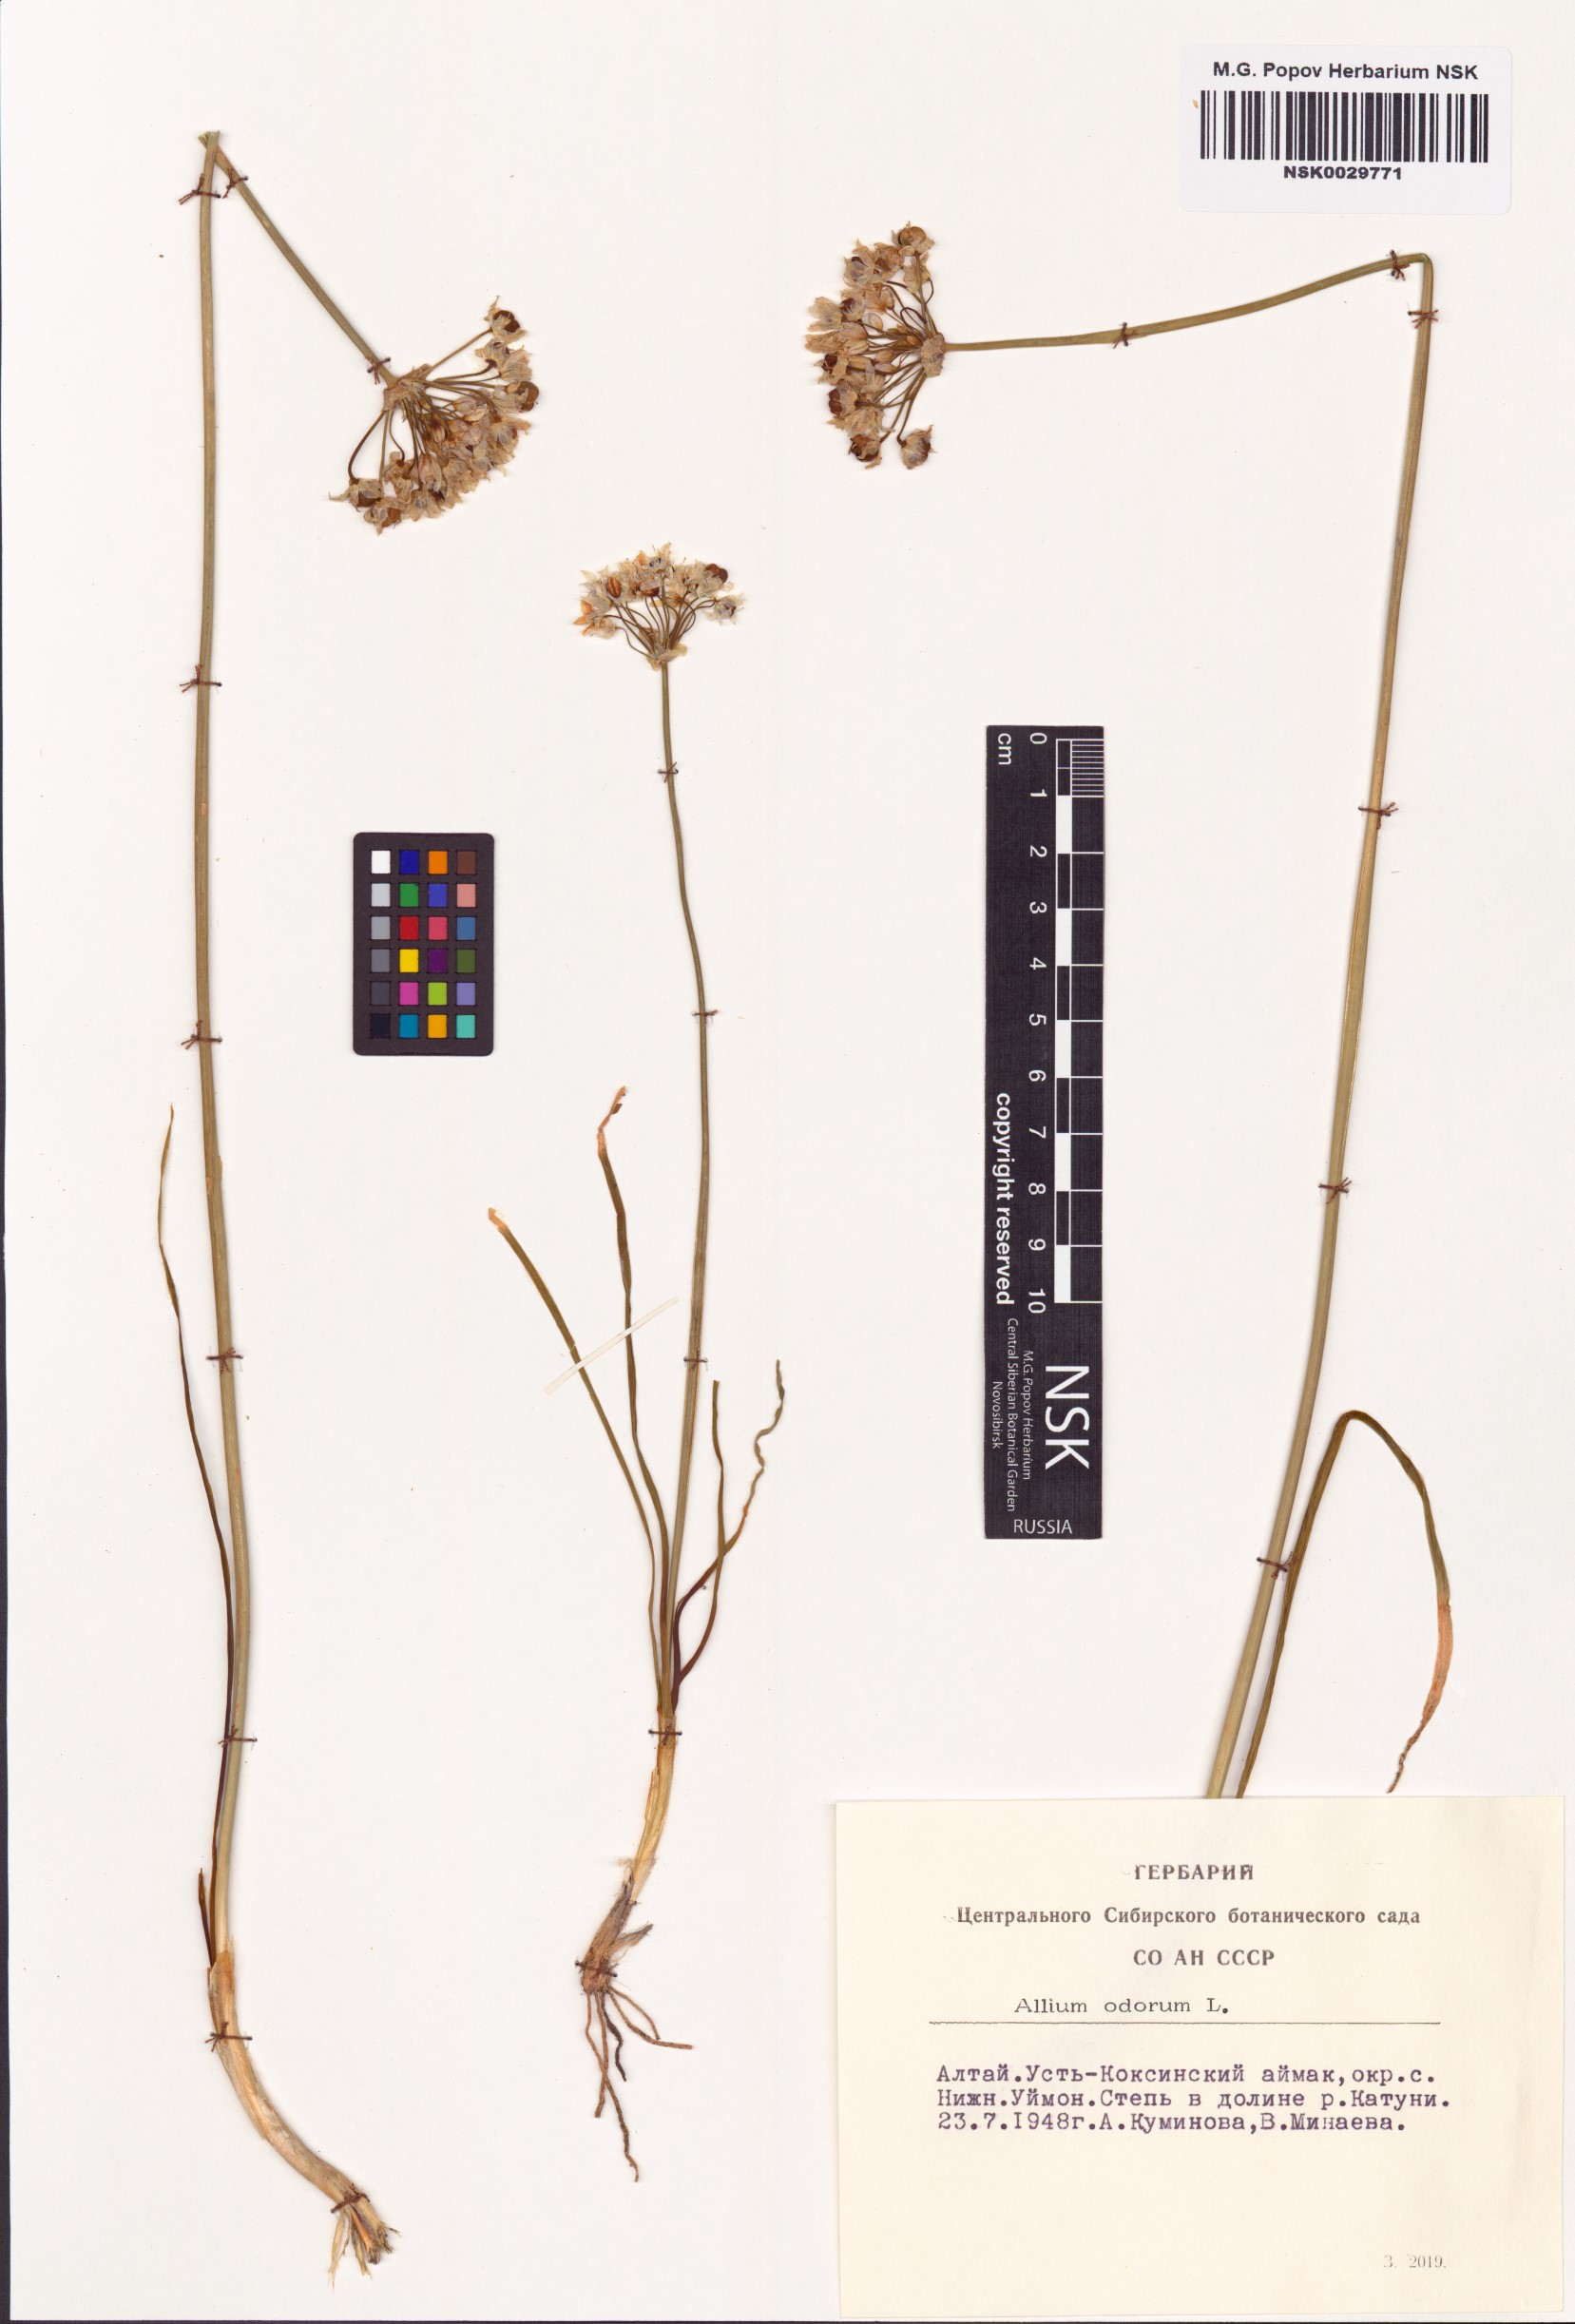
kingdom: Plantae
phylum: Tracheophyta
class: Liliopsida
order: Asparagales
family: Amaryllidaceae
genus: Allium
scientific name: Allium ramosum
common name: Fragrant garlic
